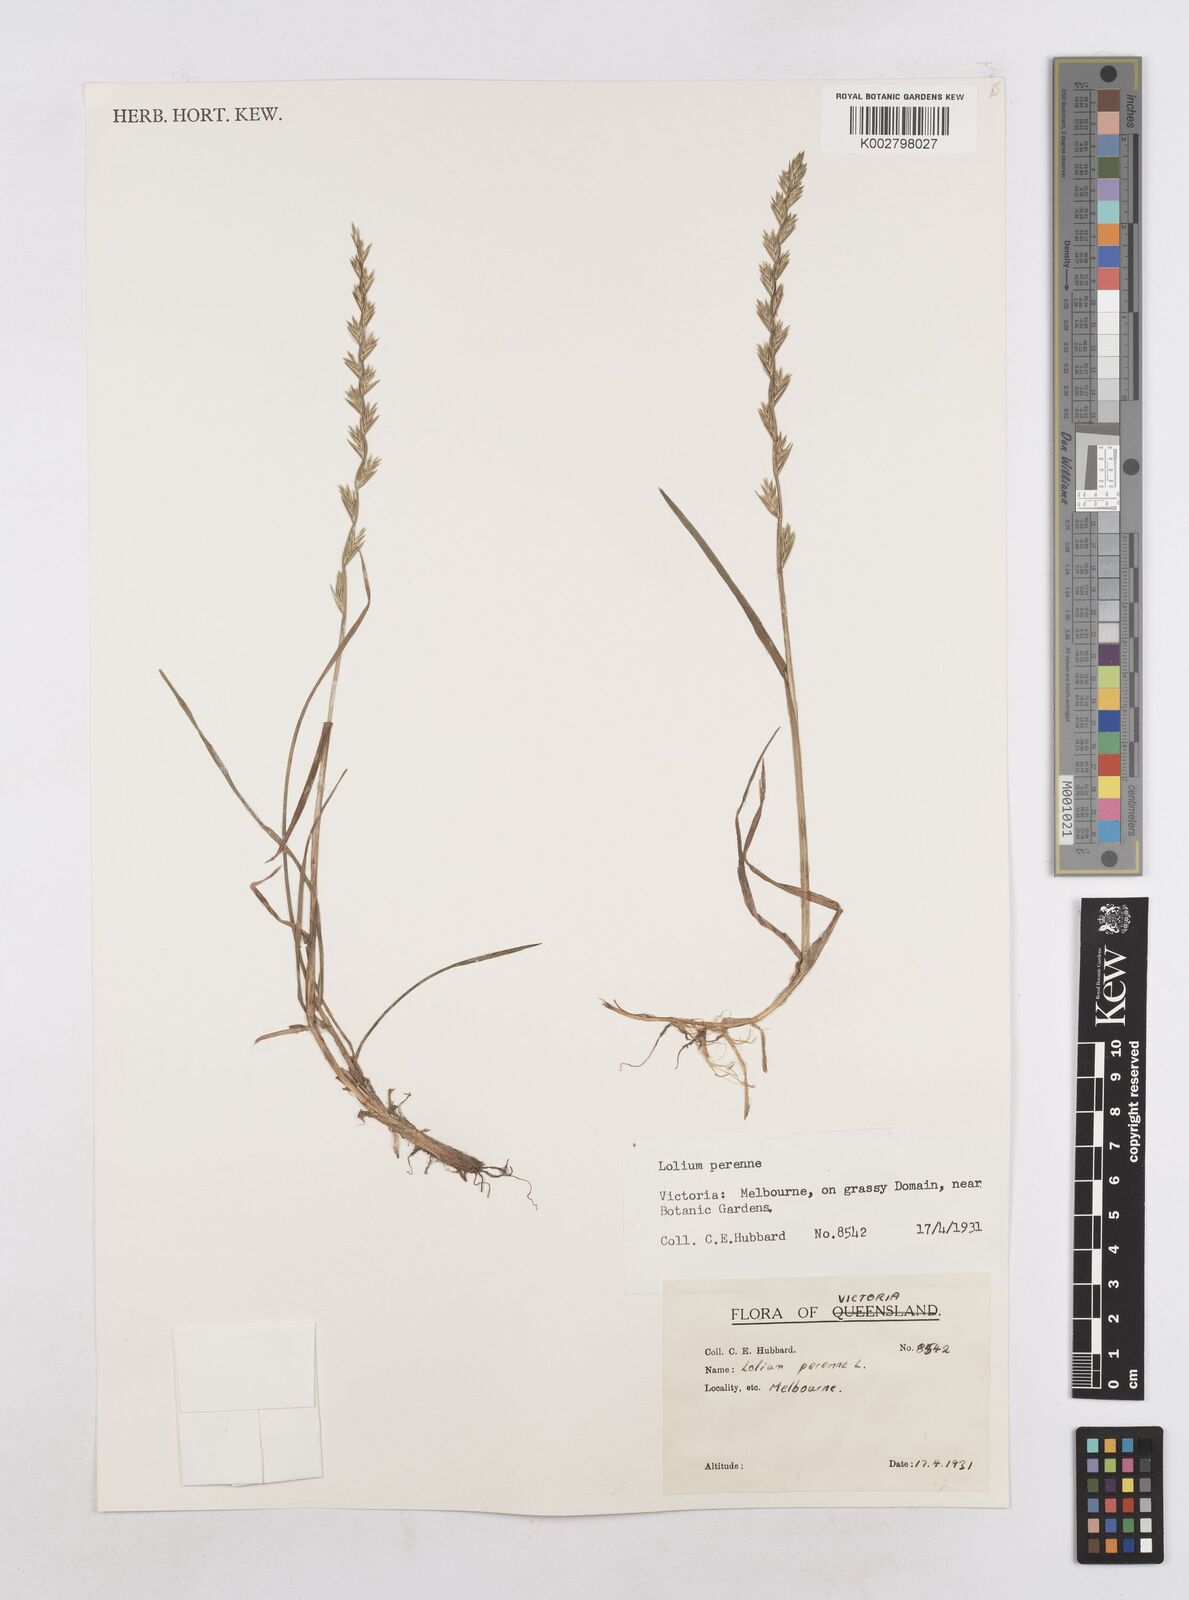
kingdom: Plantae
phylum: Tracheophyta
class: Liliopsida
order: Poales
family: Poaceae
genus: Lolium
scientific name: Lolium perenne
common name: Perennial ryegrass
